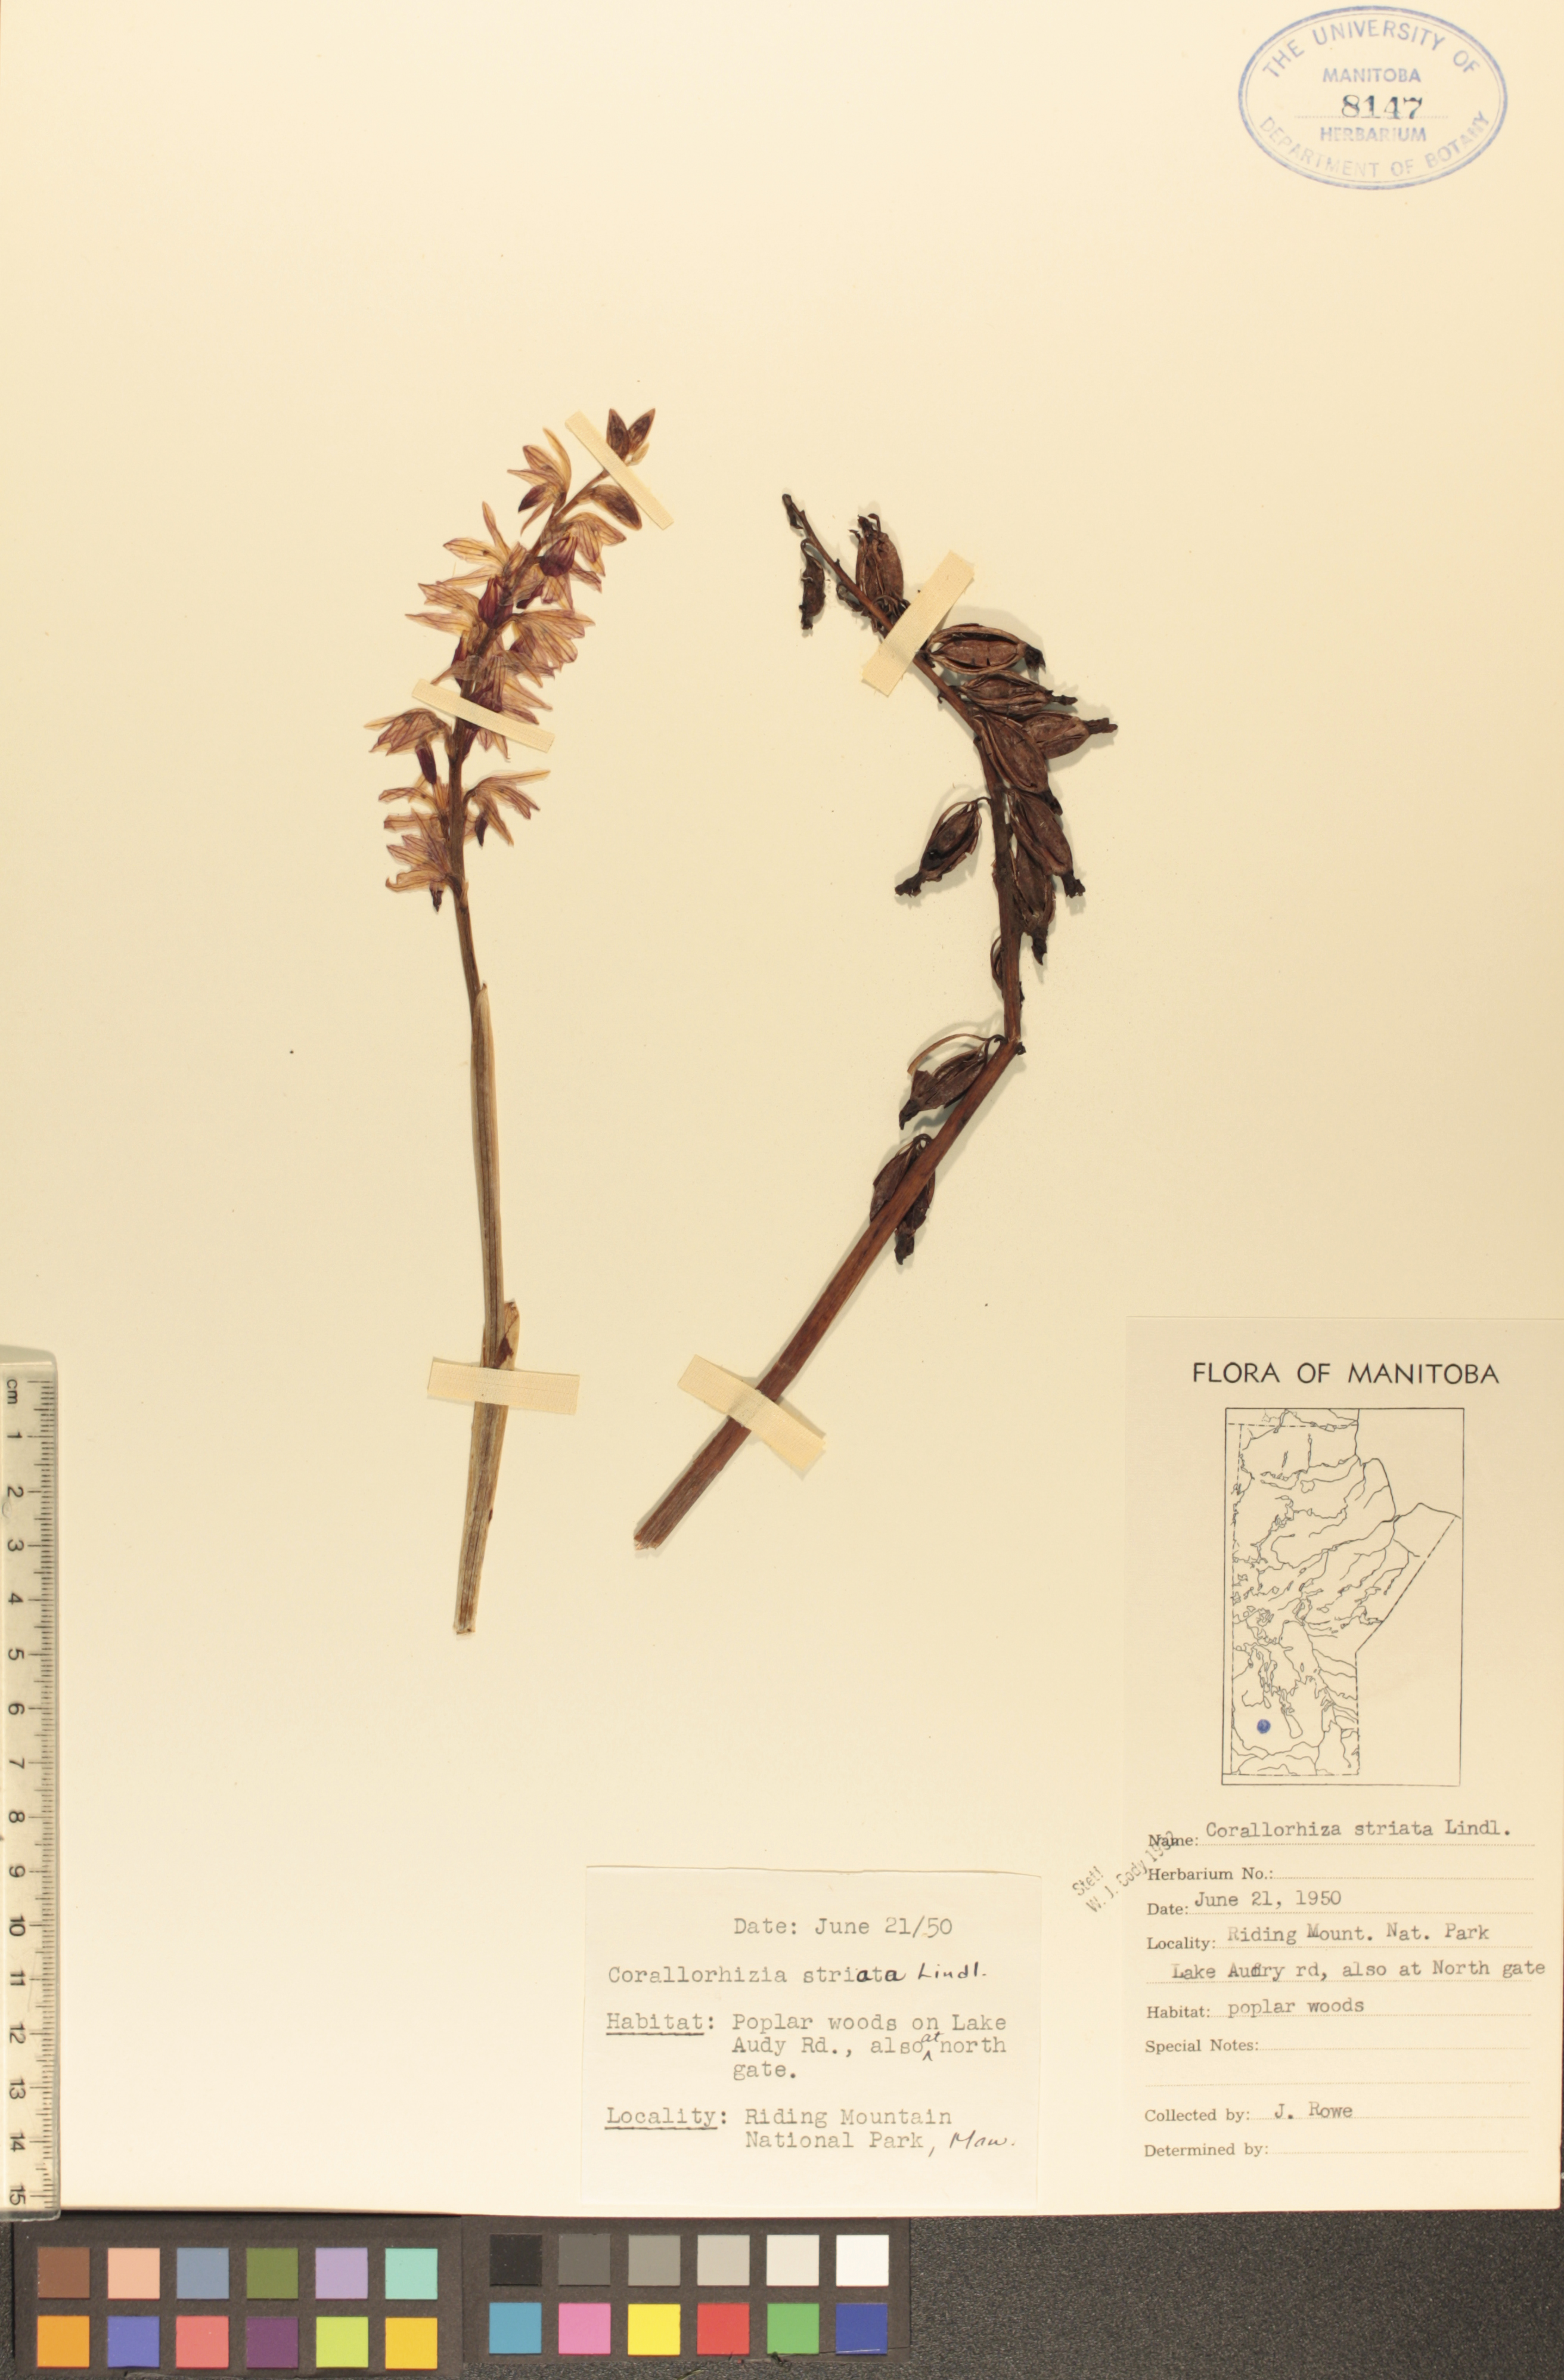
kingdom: Plantae
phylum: Tracheophyta
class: Liliopsida
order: Asparagales
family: Orchidaceae
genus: Corallorhiza
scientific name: Corallorhiza striata
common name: Hooded coralroot
